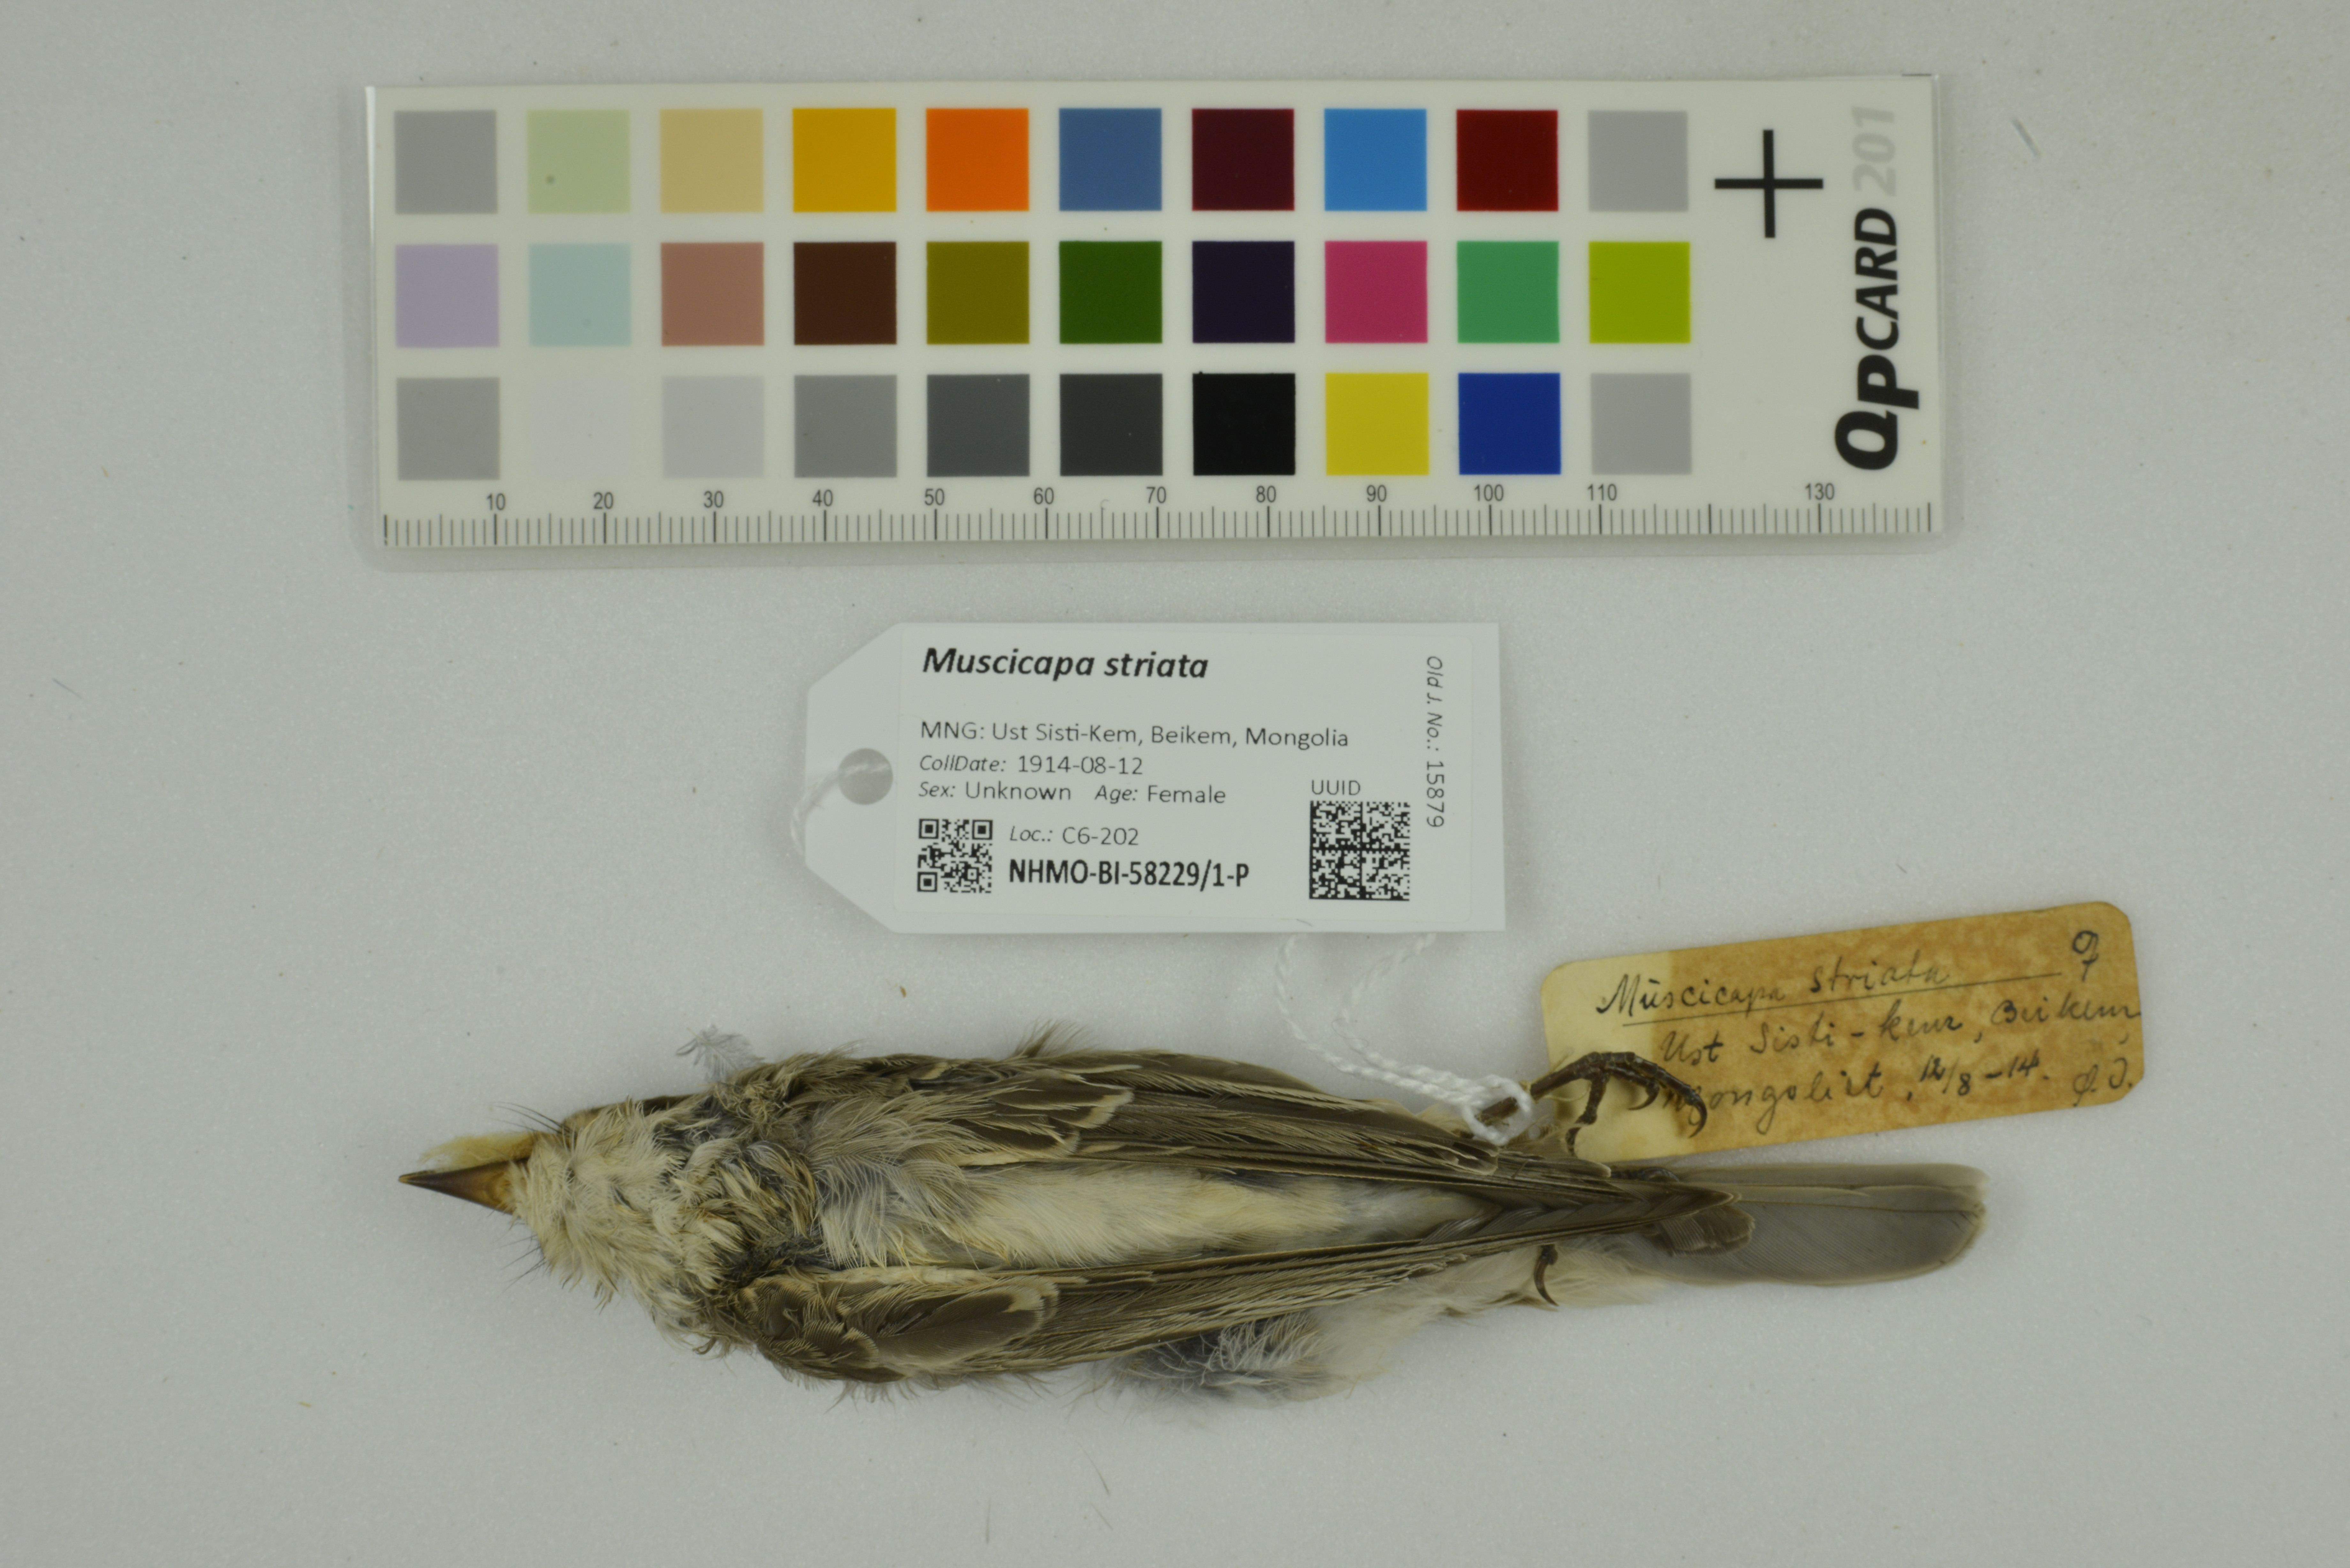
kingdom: Animalia
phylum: Chordata
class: Aves
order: Passeriformes
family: Muscicapidae
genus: Muscicapa
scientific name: Muscicapa striata
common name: Spotted flycatcher
